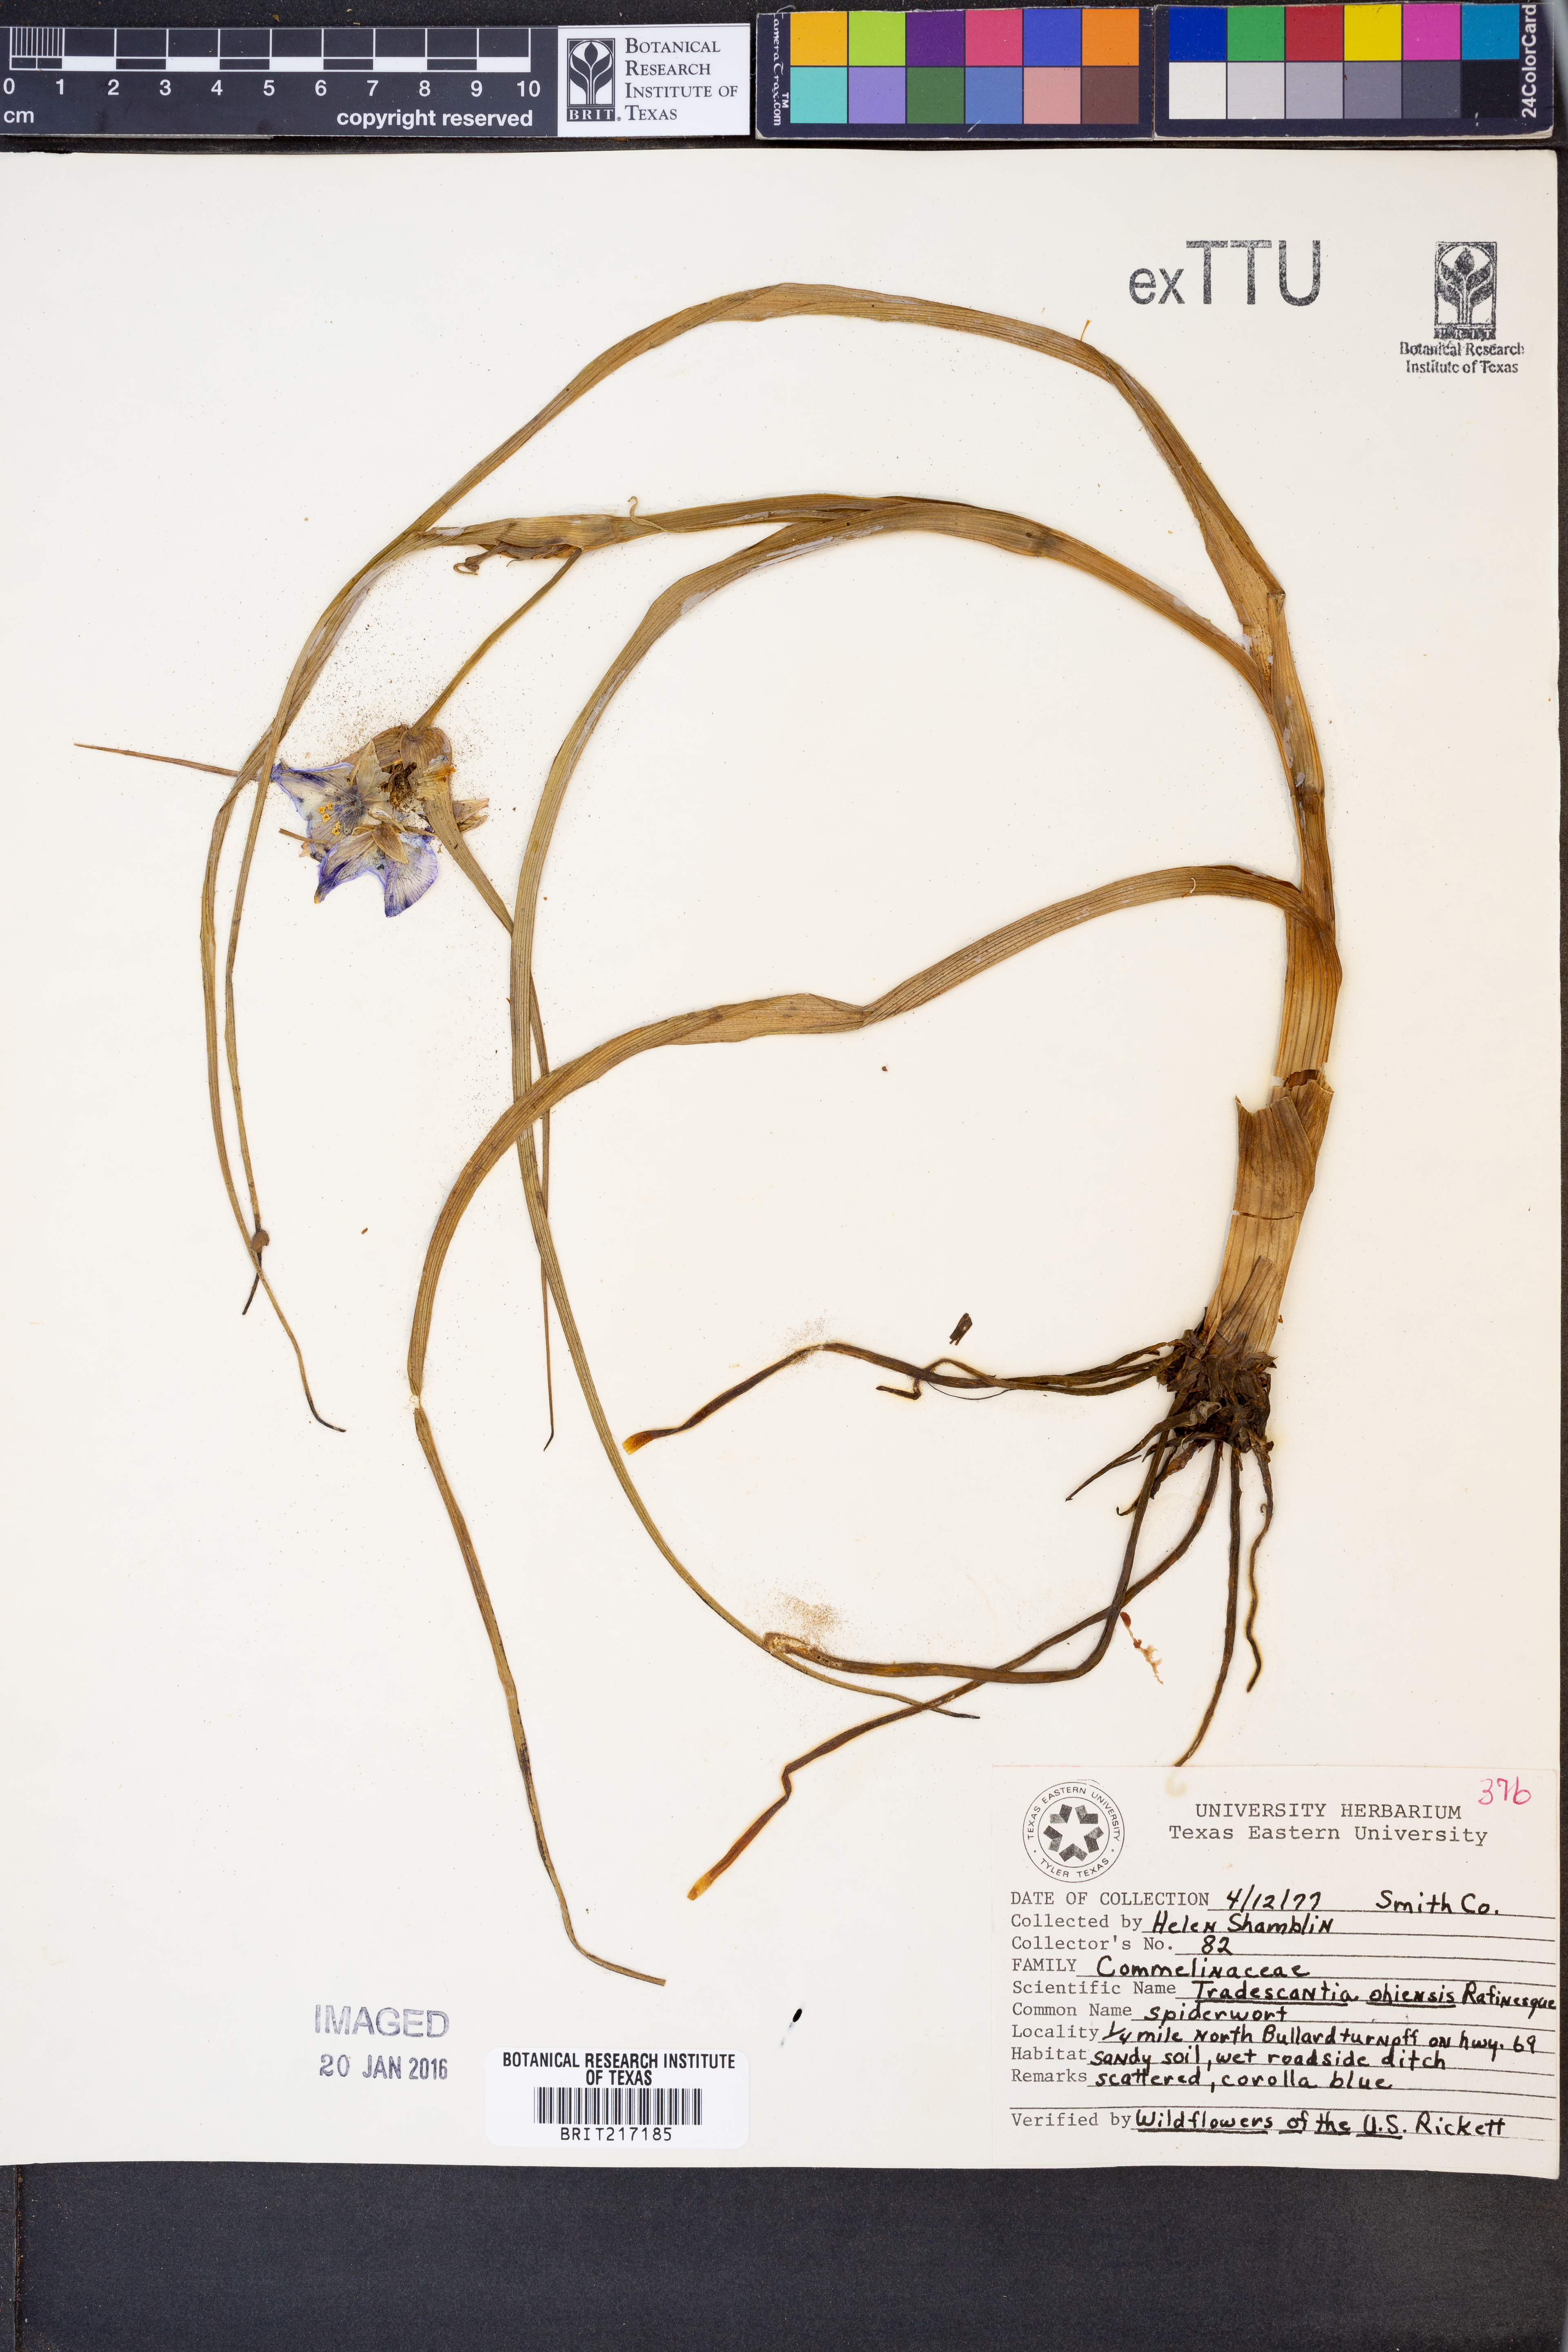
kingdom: Plantae
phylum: Tracheophyta
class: Liliopsida
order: Commelinales
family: Commelinaceae
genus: Tradescantia
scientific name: Tradescantia ohiensis
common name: Ohio spiderwort
